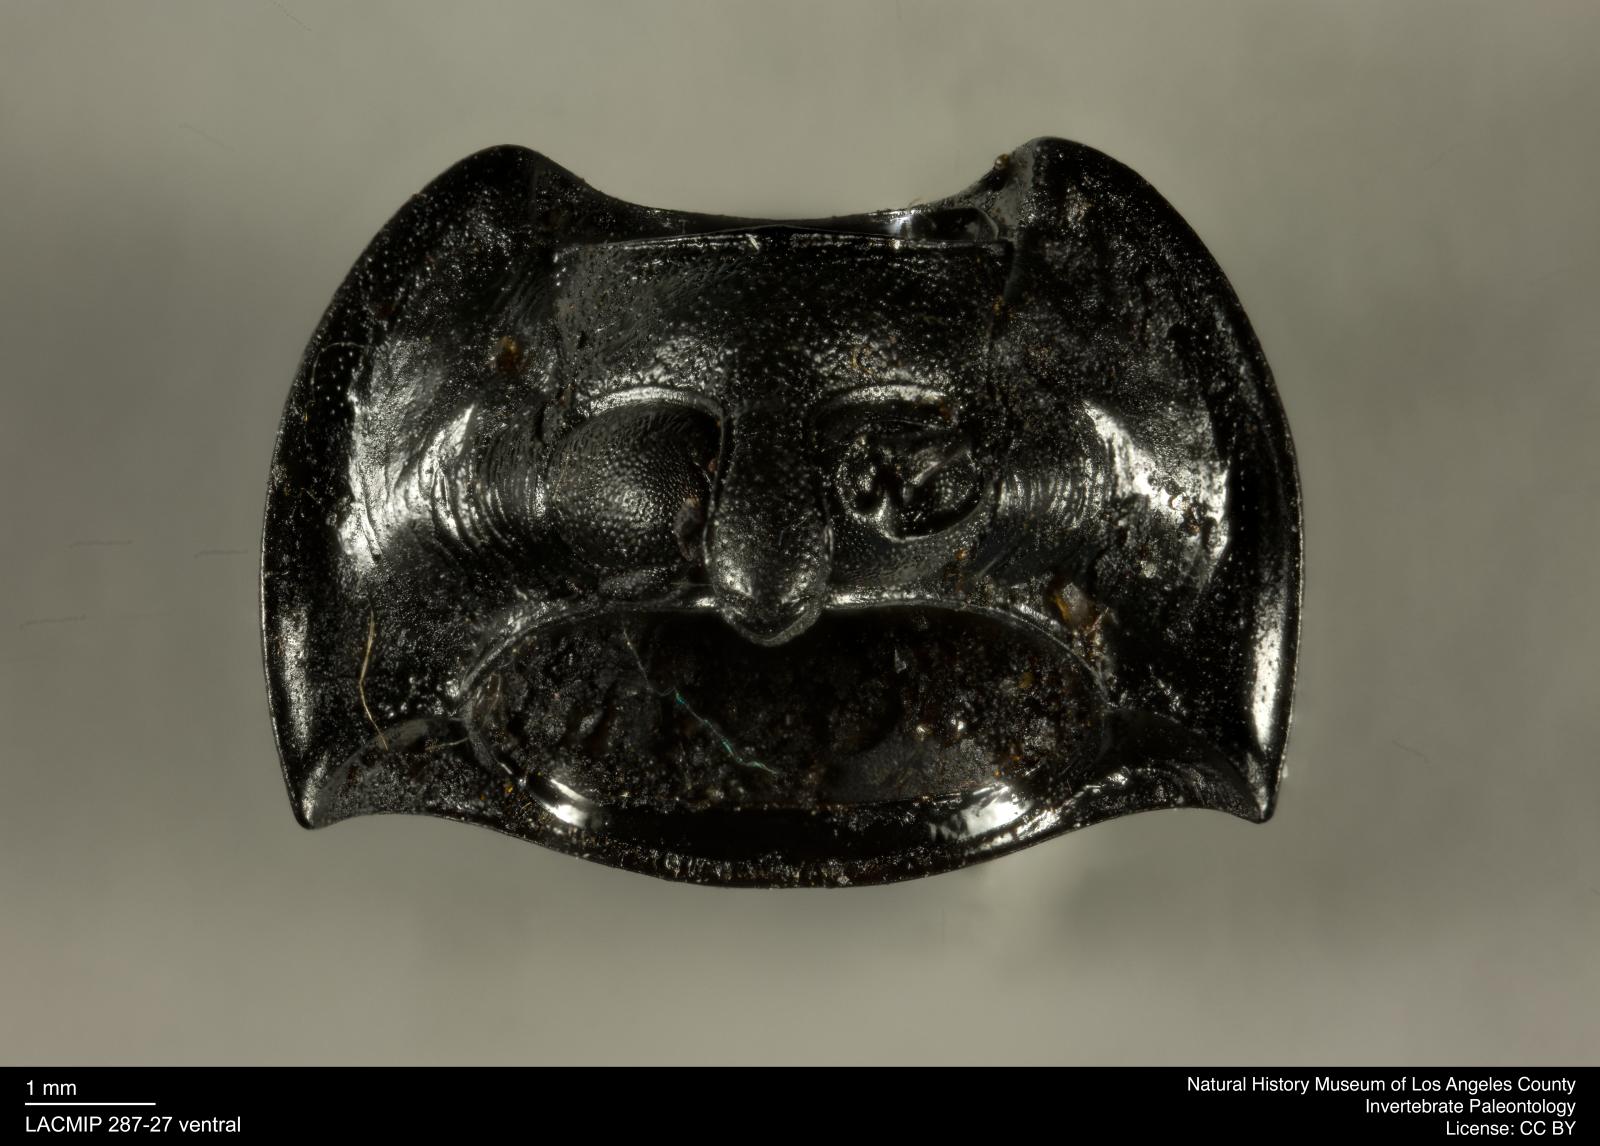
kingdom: Animalia
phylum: Arthropoda
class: Insecta
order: Coleoptera
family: Tenebrionidae
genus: Coniontis
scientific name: Coniontis abdominalis
